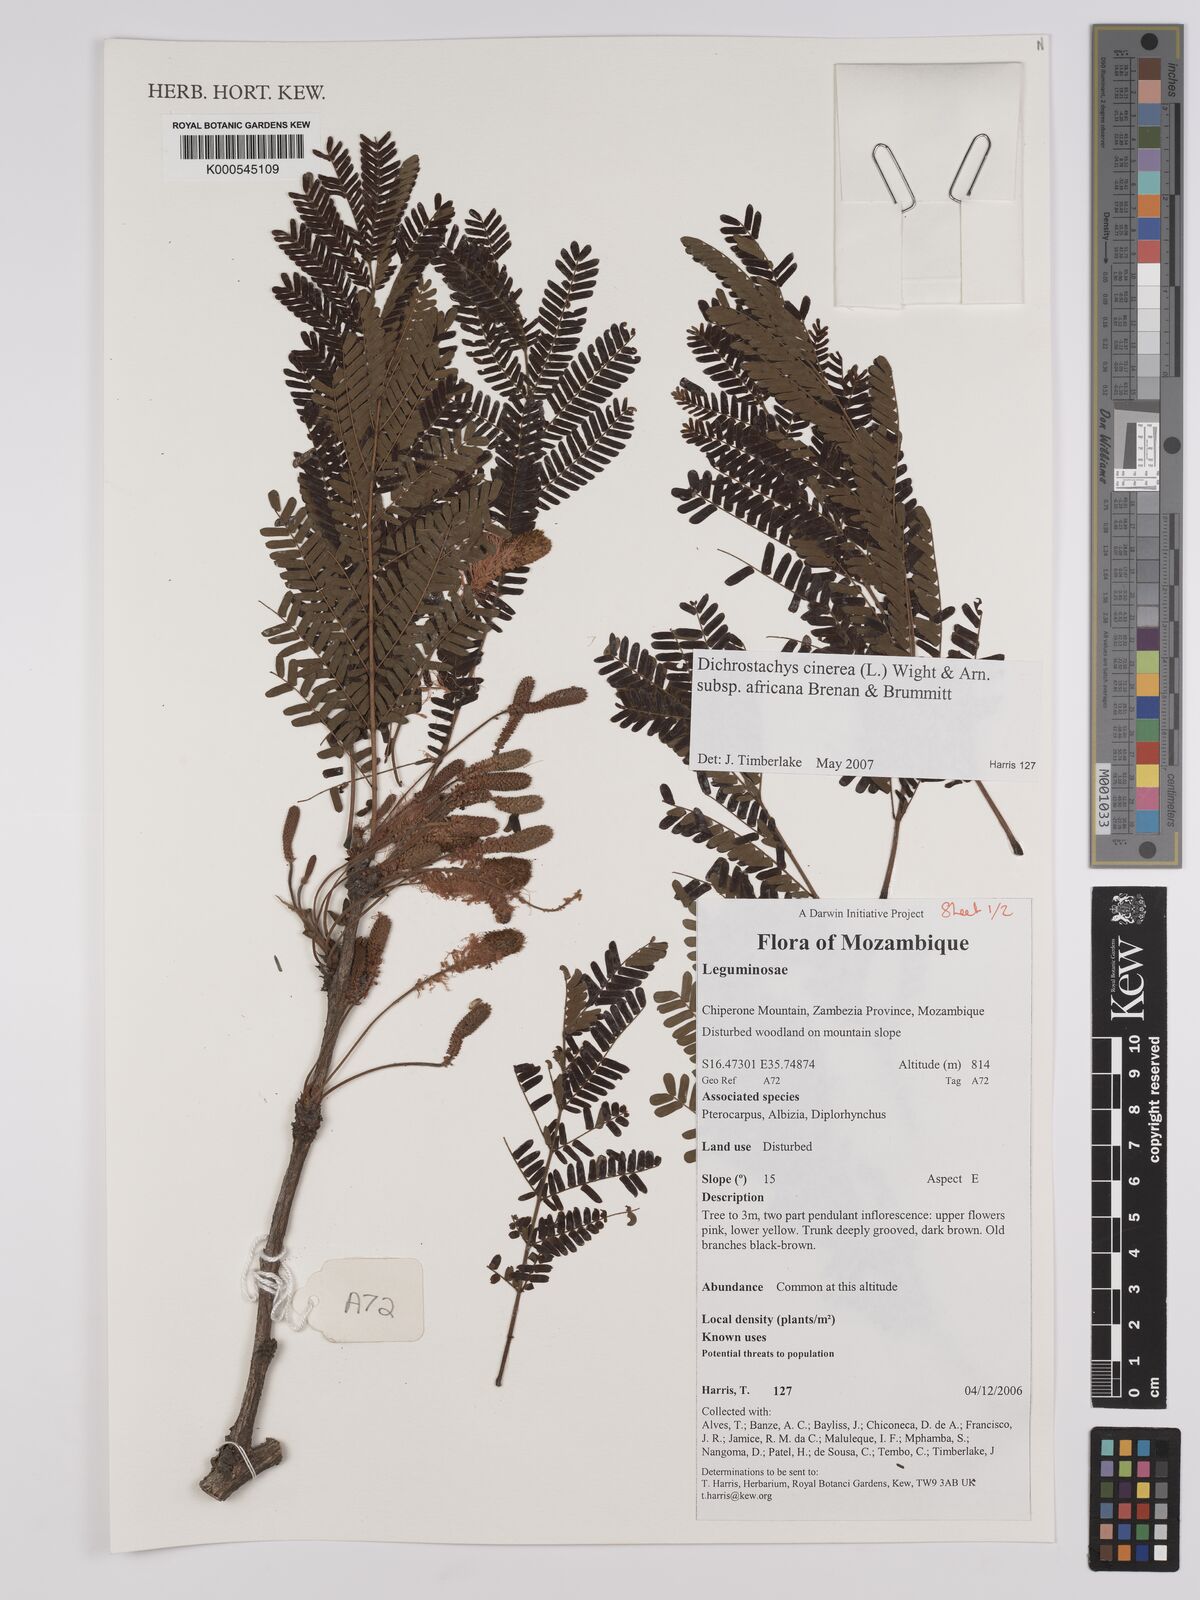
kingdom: Plantae
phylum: Tracheophyta
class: Magnoliopsida
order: Fabales
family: Fabaceae
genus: Dichrostachys
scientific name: Dichrostachys
